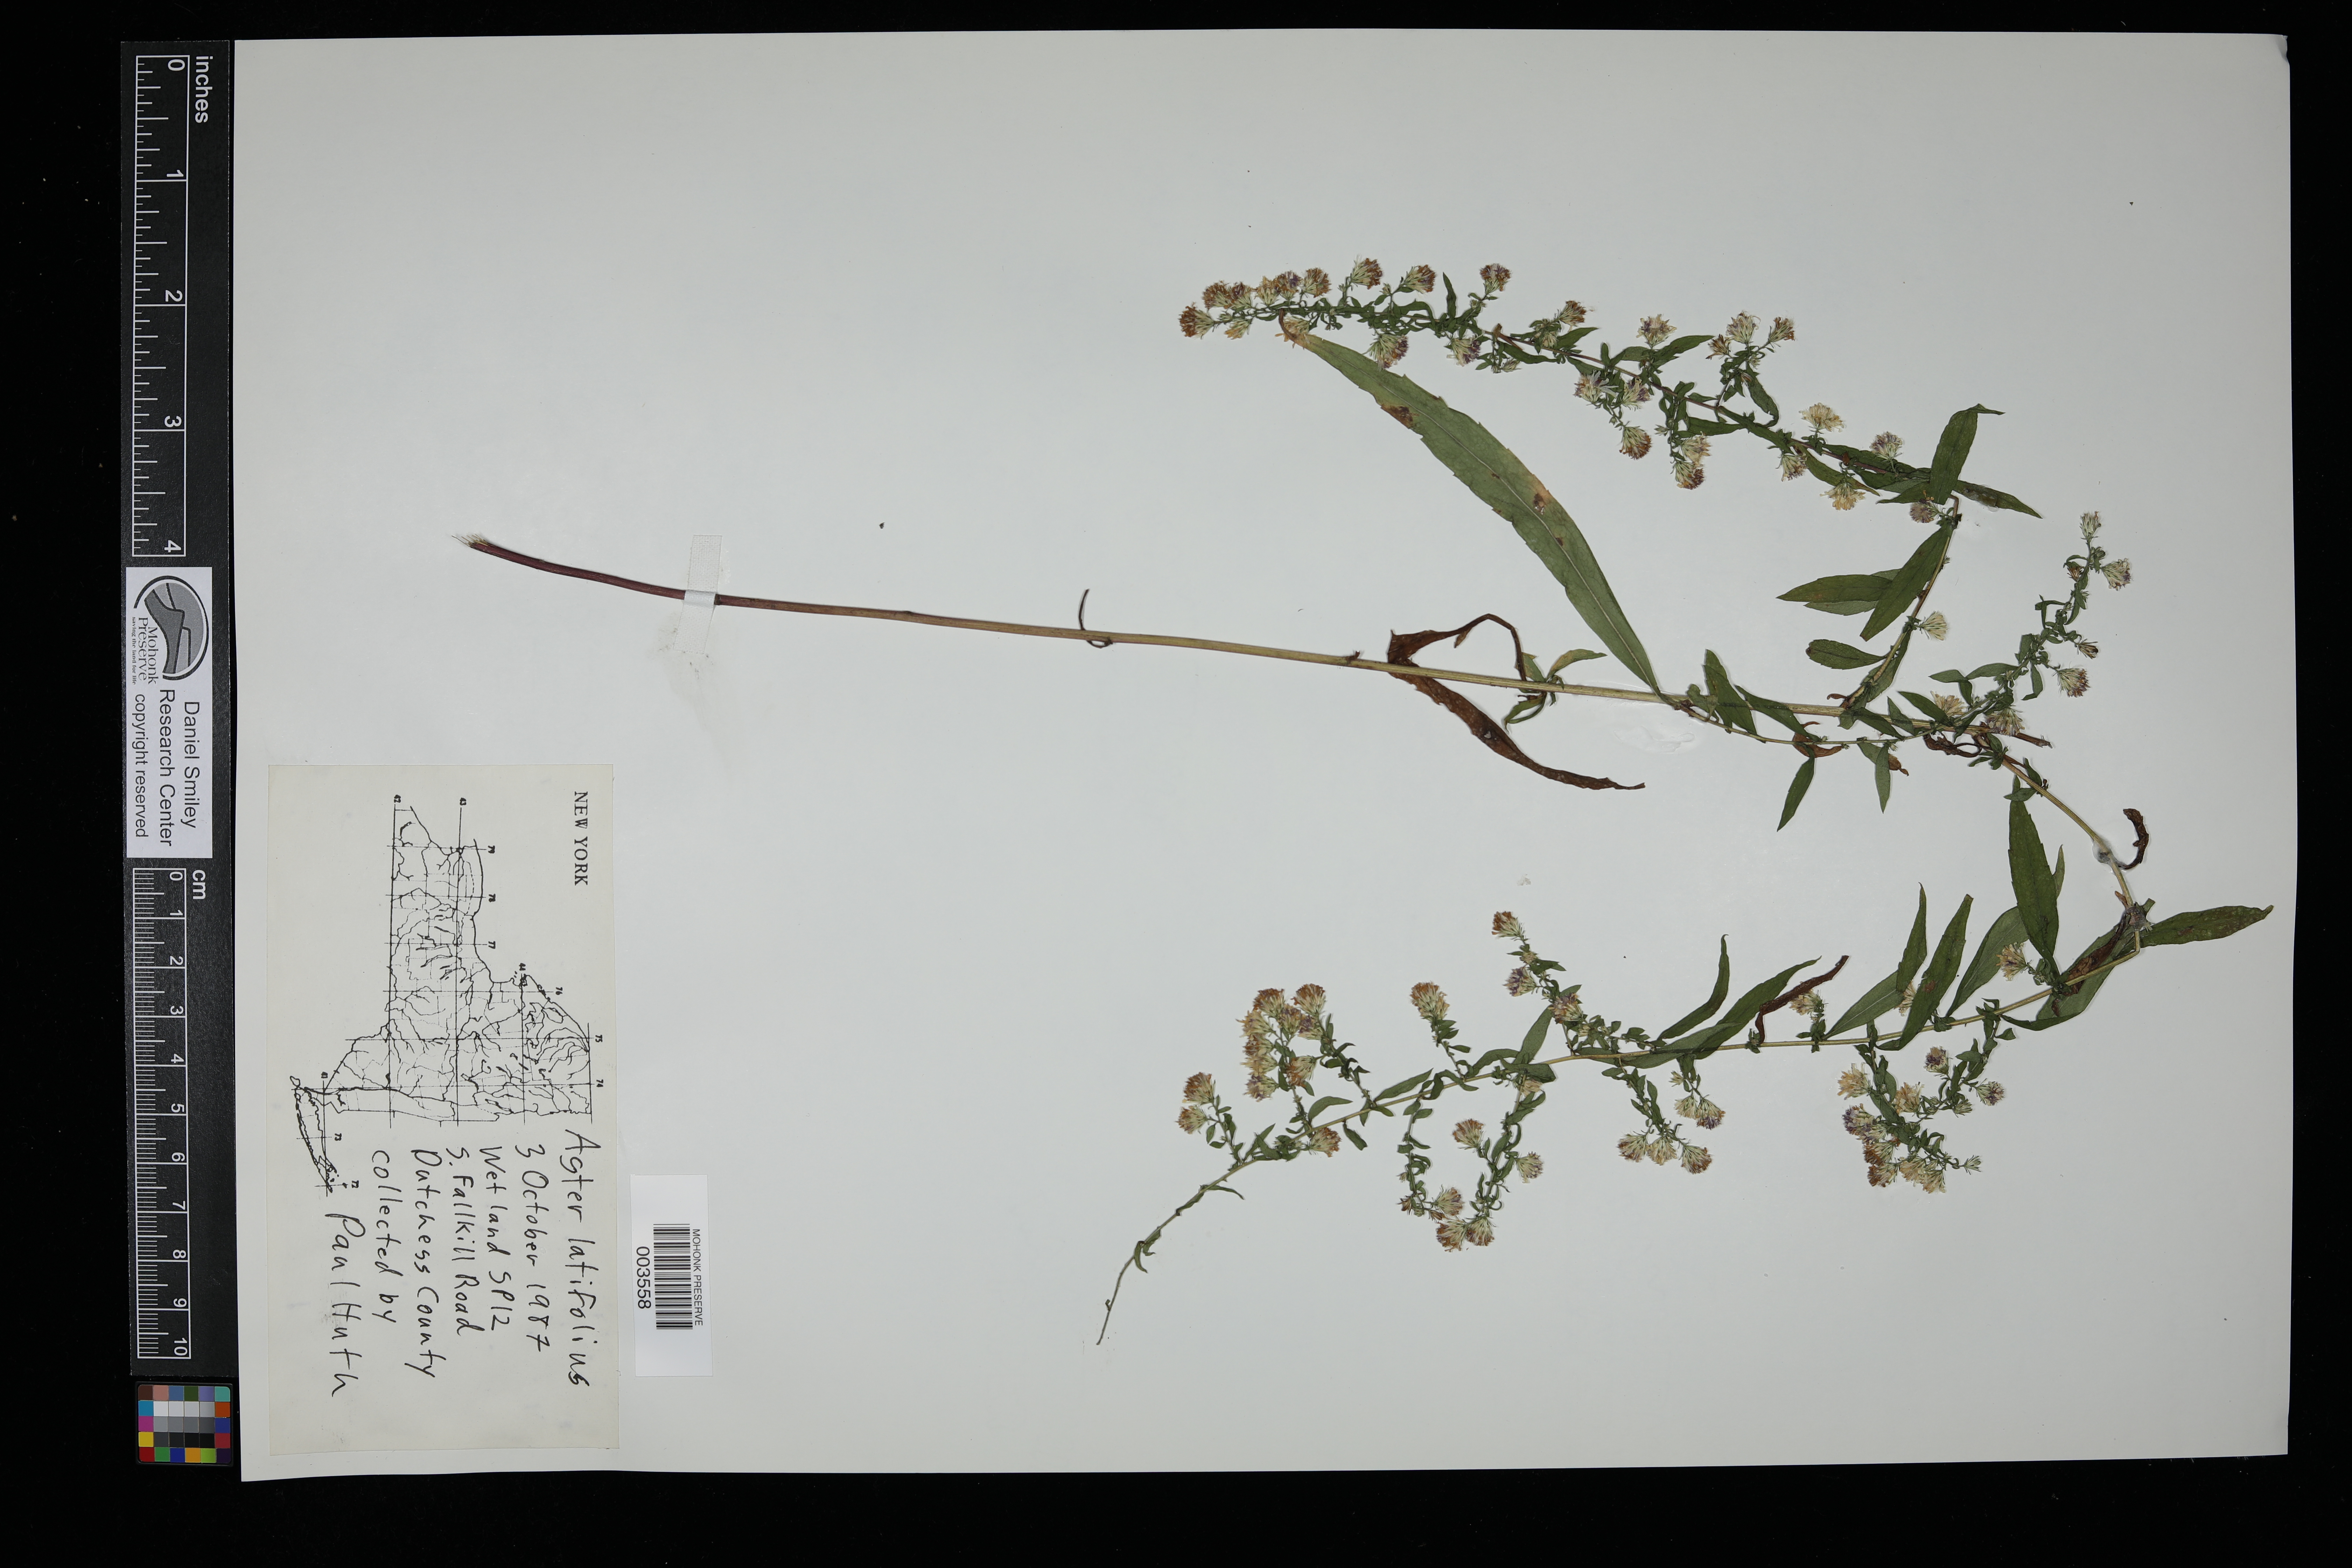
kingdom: Plantae
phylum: Tracheophyta
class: Magnoliopsida
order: Asterales
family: Asteraceae
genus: Galatella
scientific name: Galatella sedifolia
